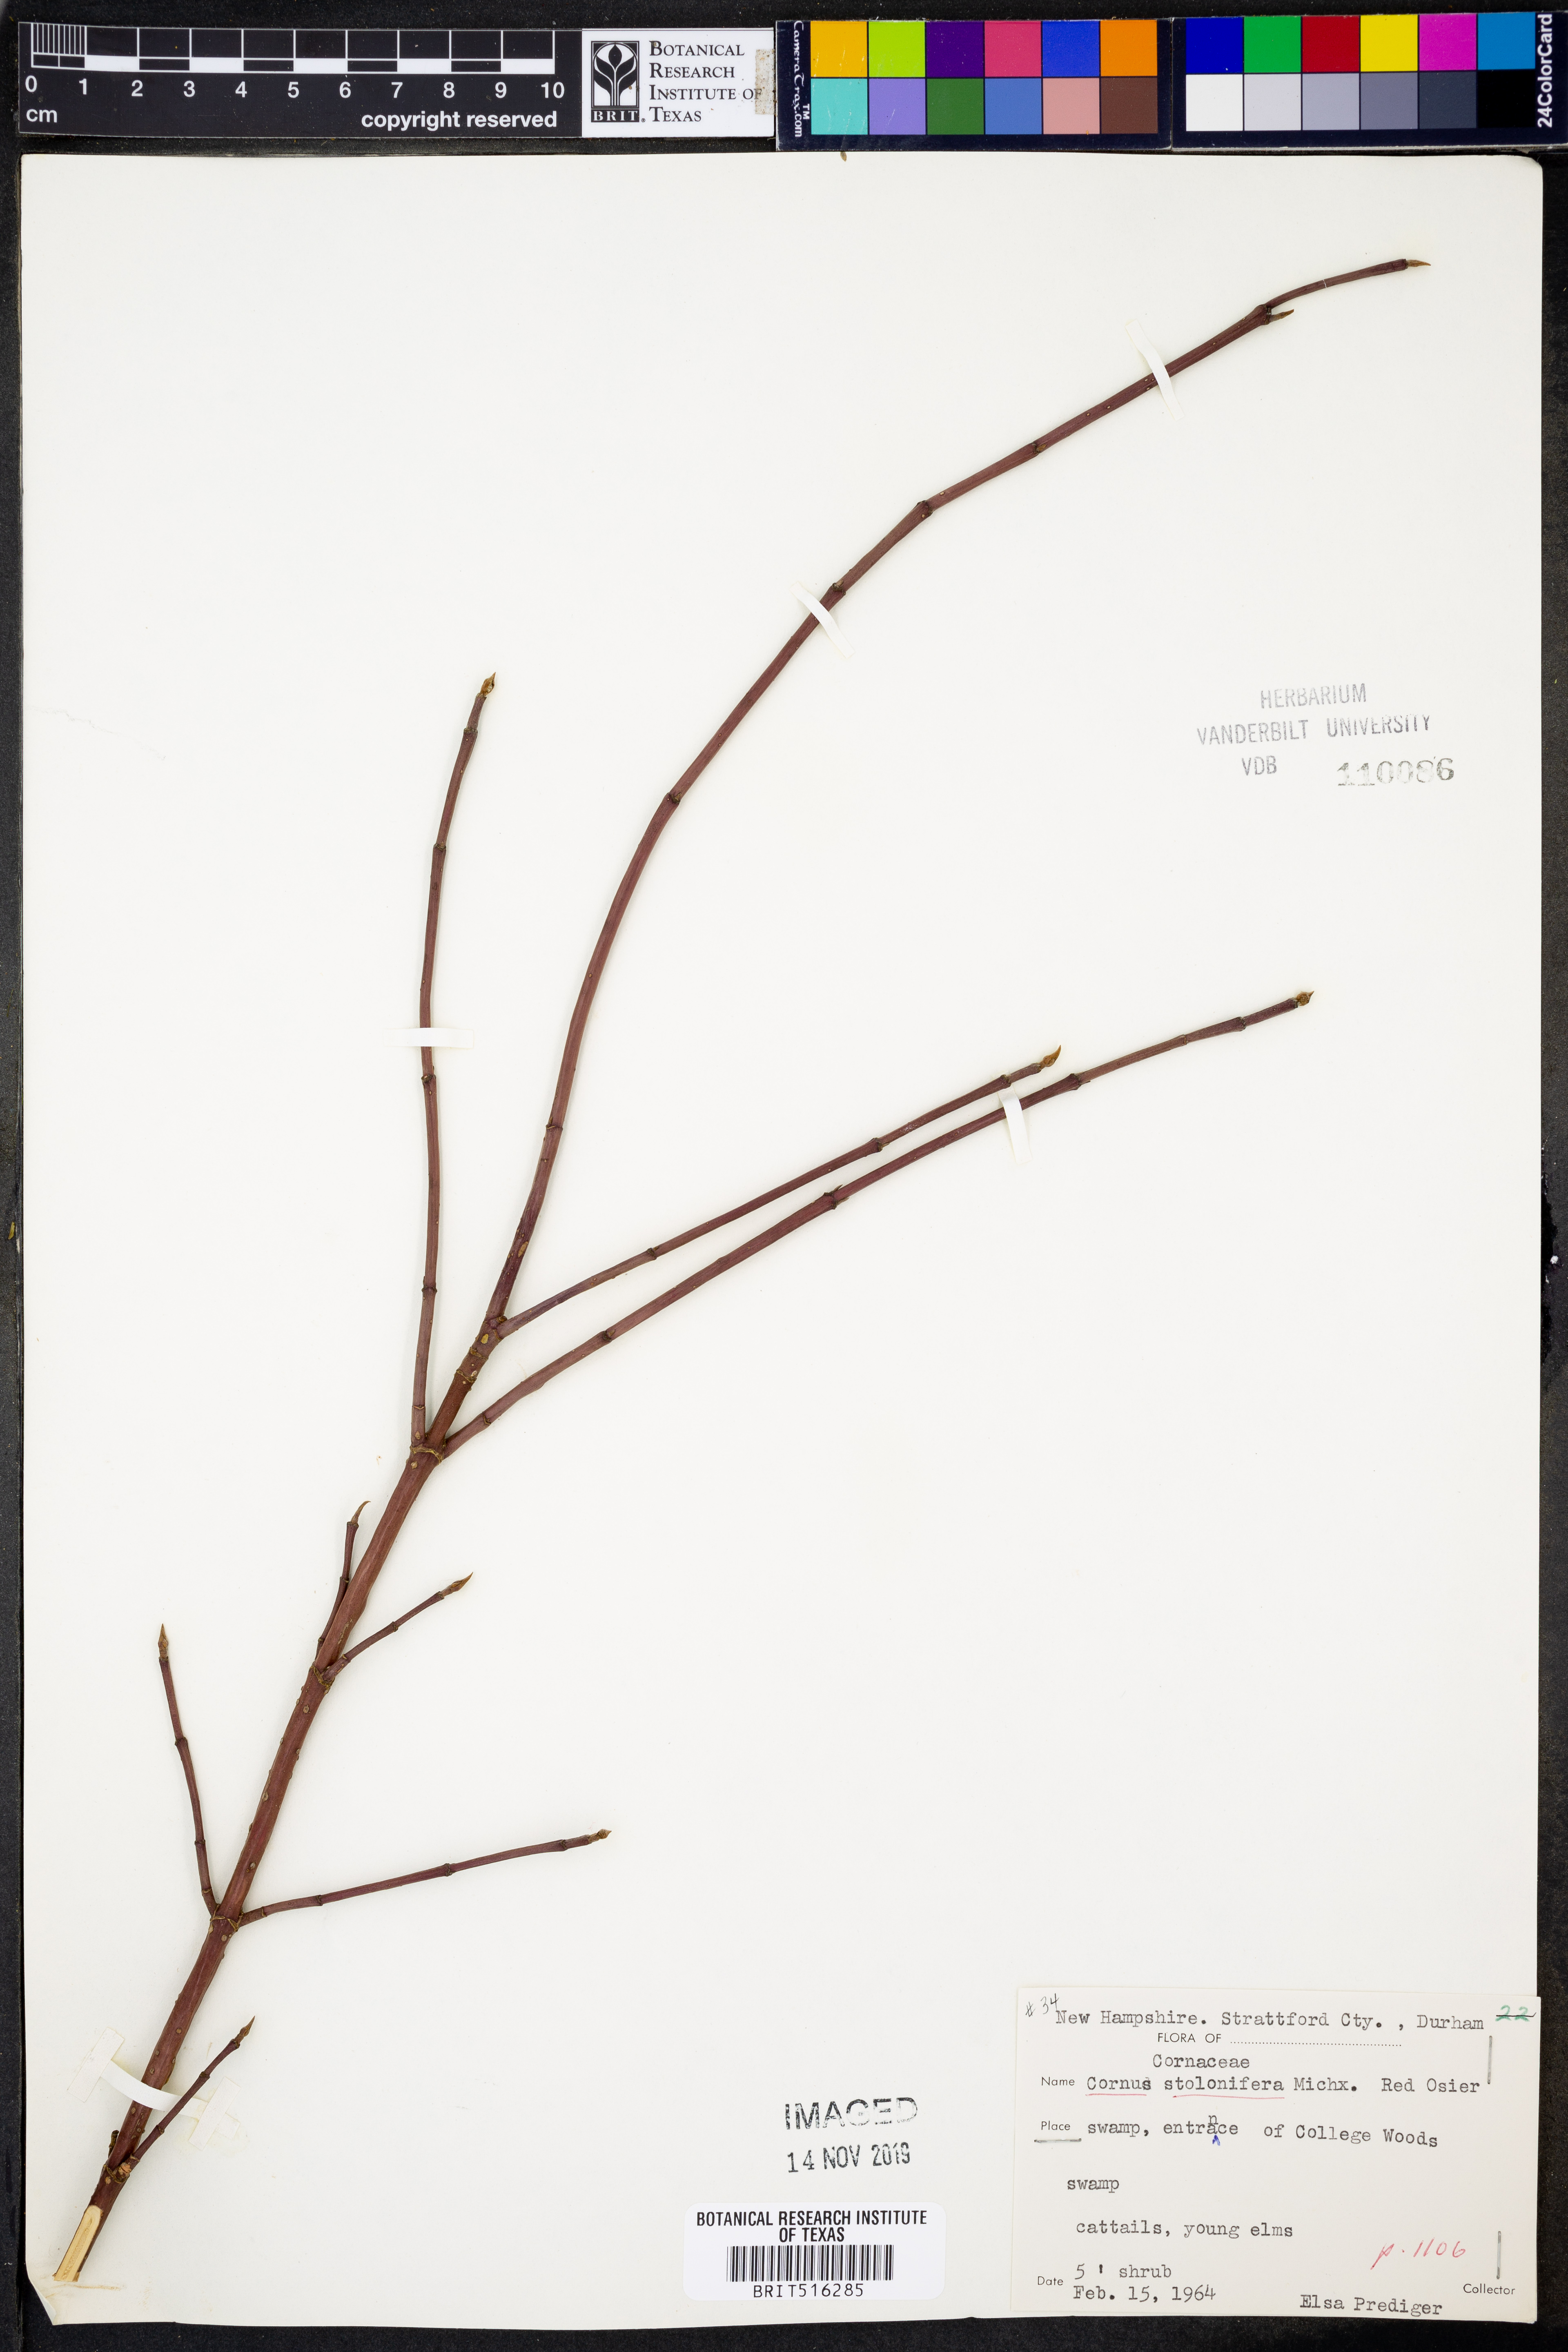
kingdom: Plantae
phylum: Tracheophyta
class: Magnoliopsida
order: Cornales
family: Cornaceae
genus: Cornus
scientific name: Cornus sericea
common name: Red-osier dogwood
